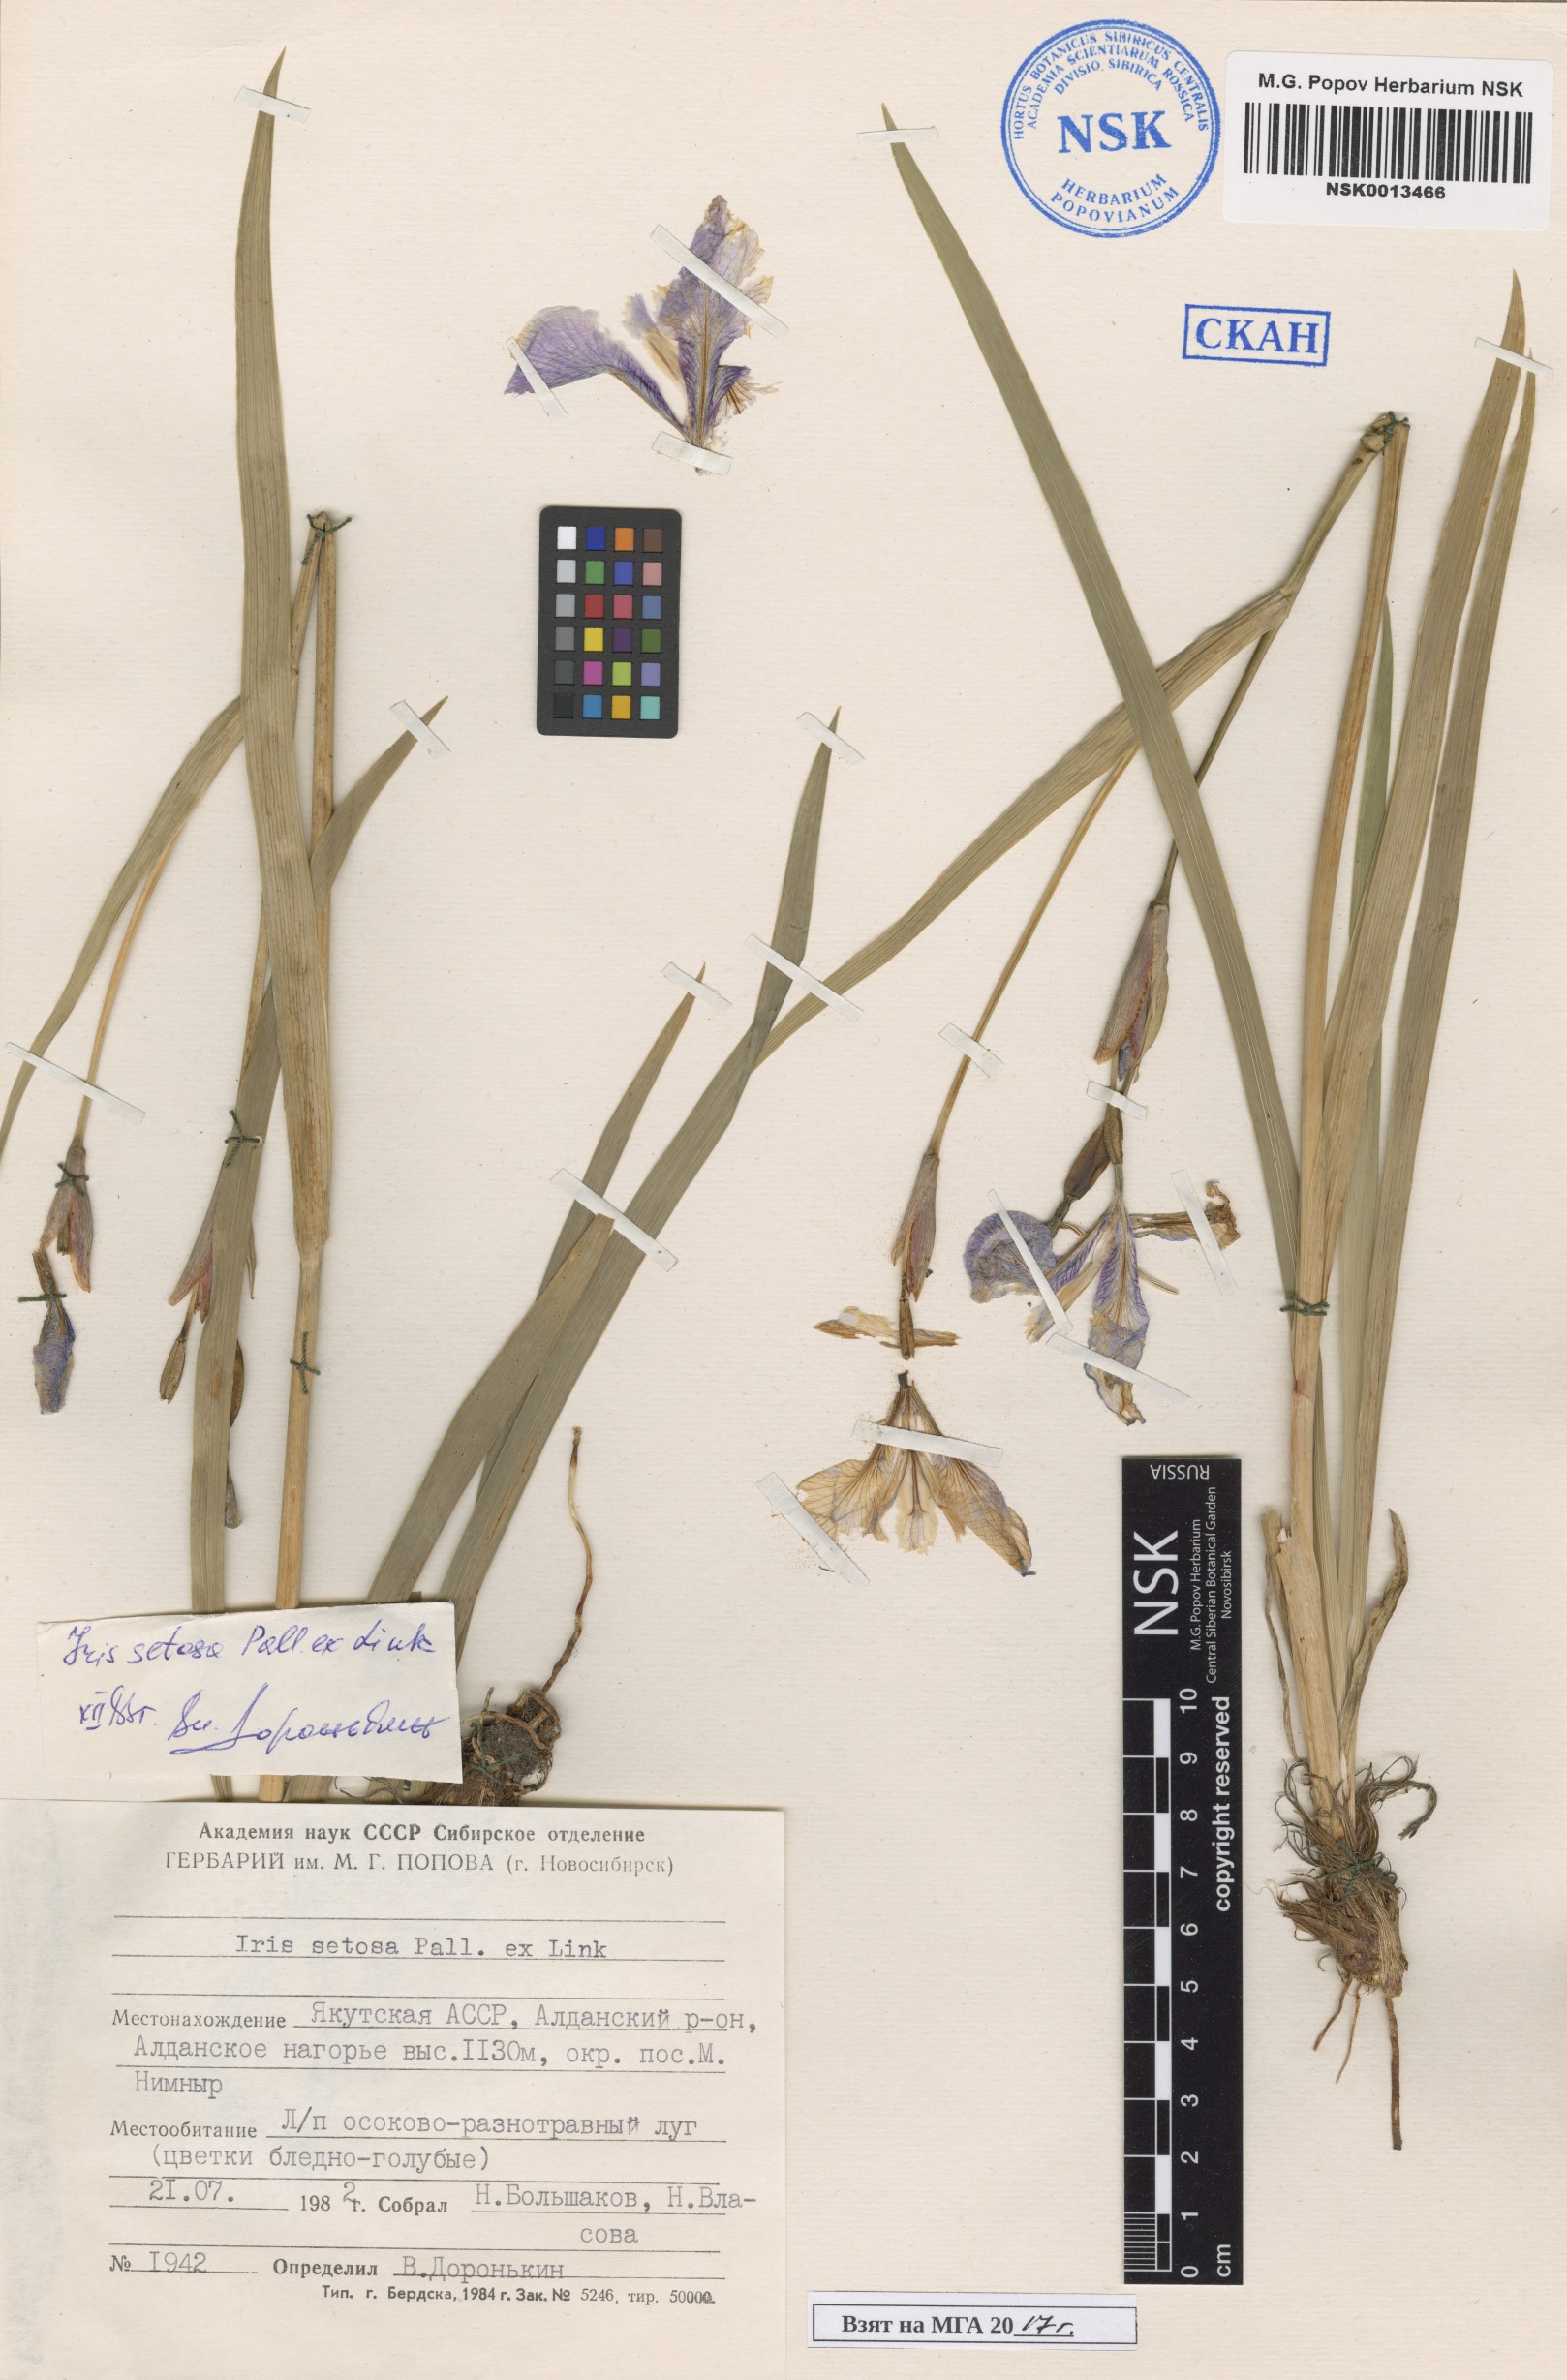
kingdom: Plantae
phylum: Tracheophyta
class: Liliopsida
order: Asparagales
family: Iridaceae
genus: Iris
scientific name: Iris setosa
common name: Arctic blue flag
